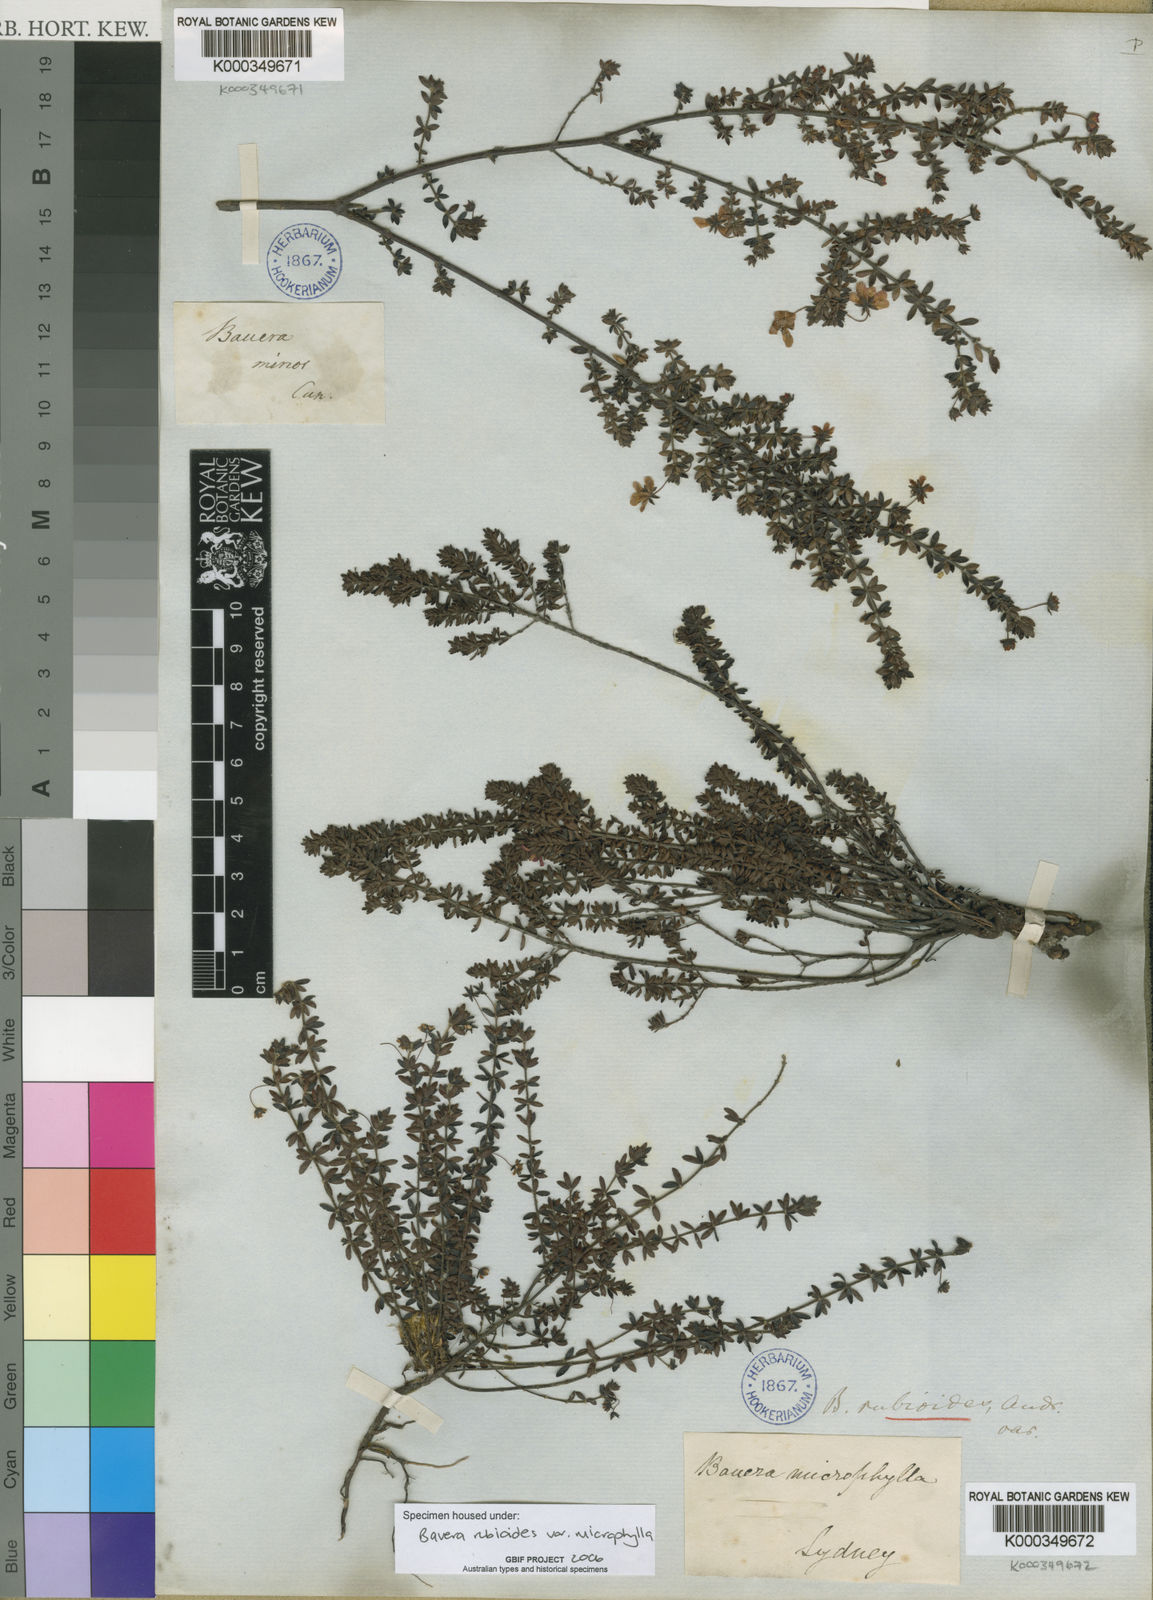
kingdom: Plantae
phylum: Tracheophyta
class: Magnoliopsida
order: Oxalidales
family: Cunoniaceae
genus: Bauera
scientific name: Bauera rubioides
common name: River-rose
